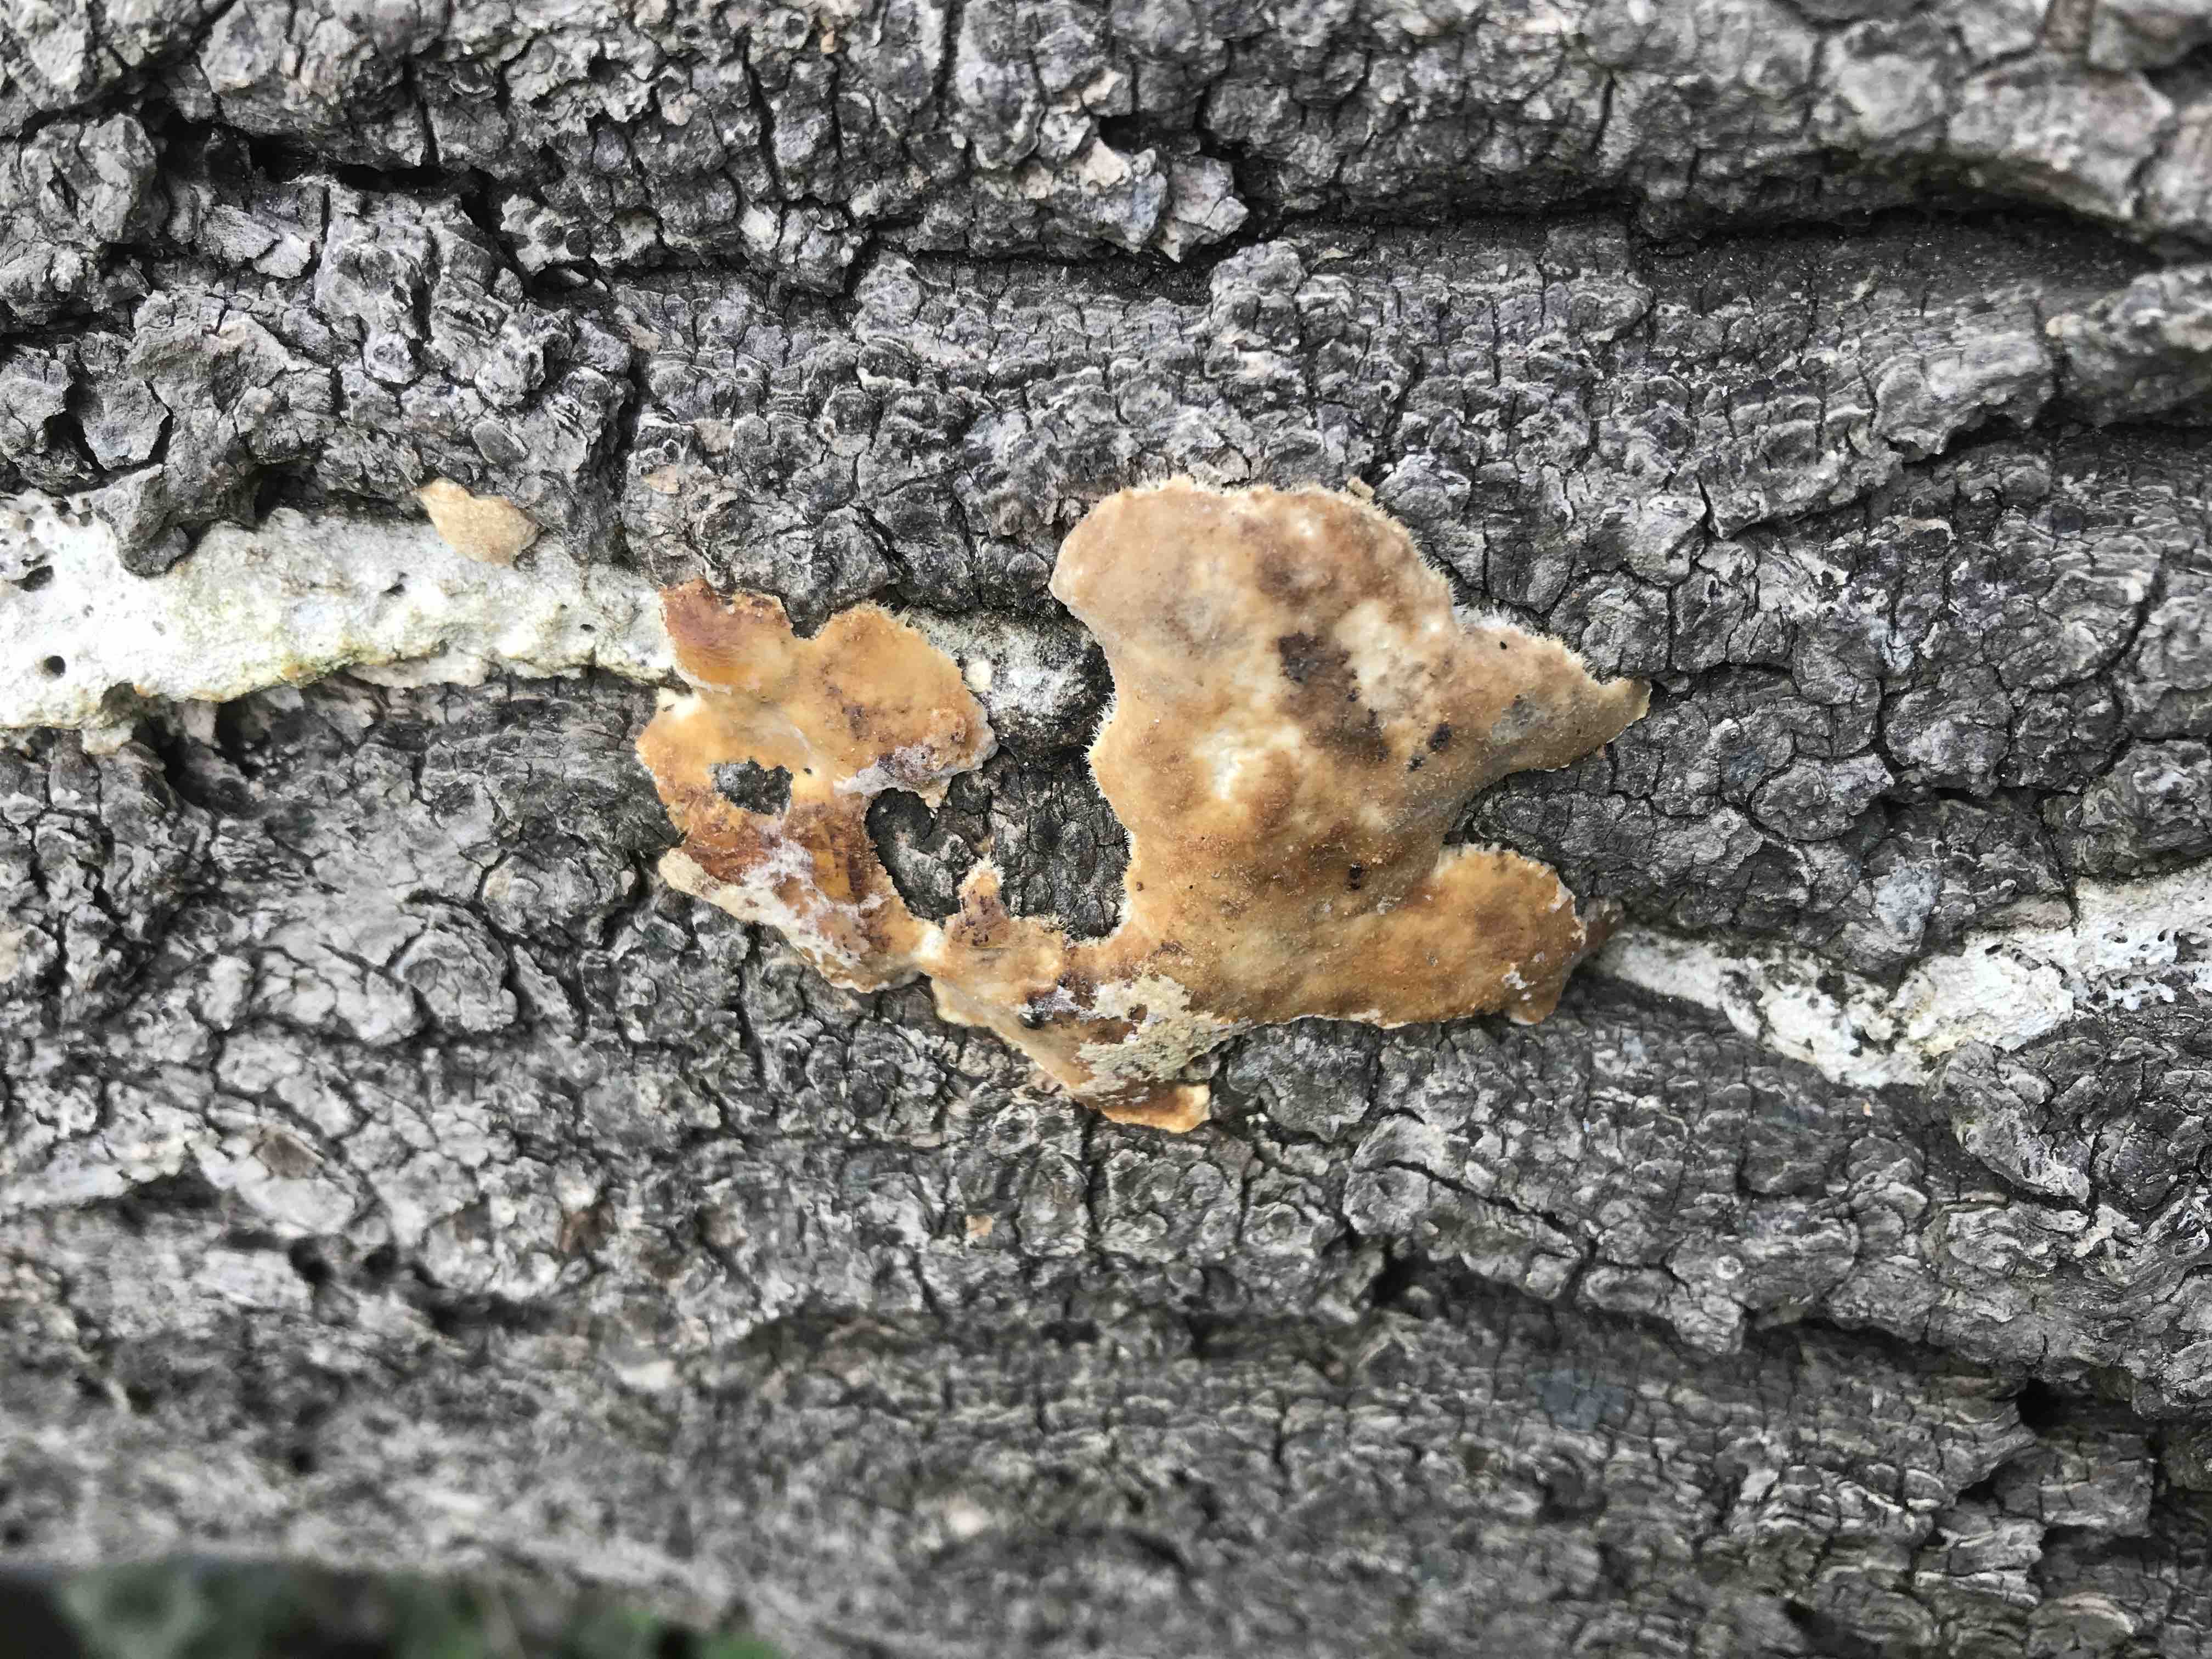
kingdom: Fungi
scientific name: Fungi
